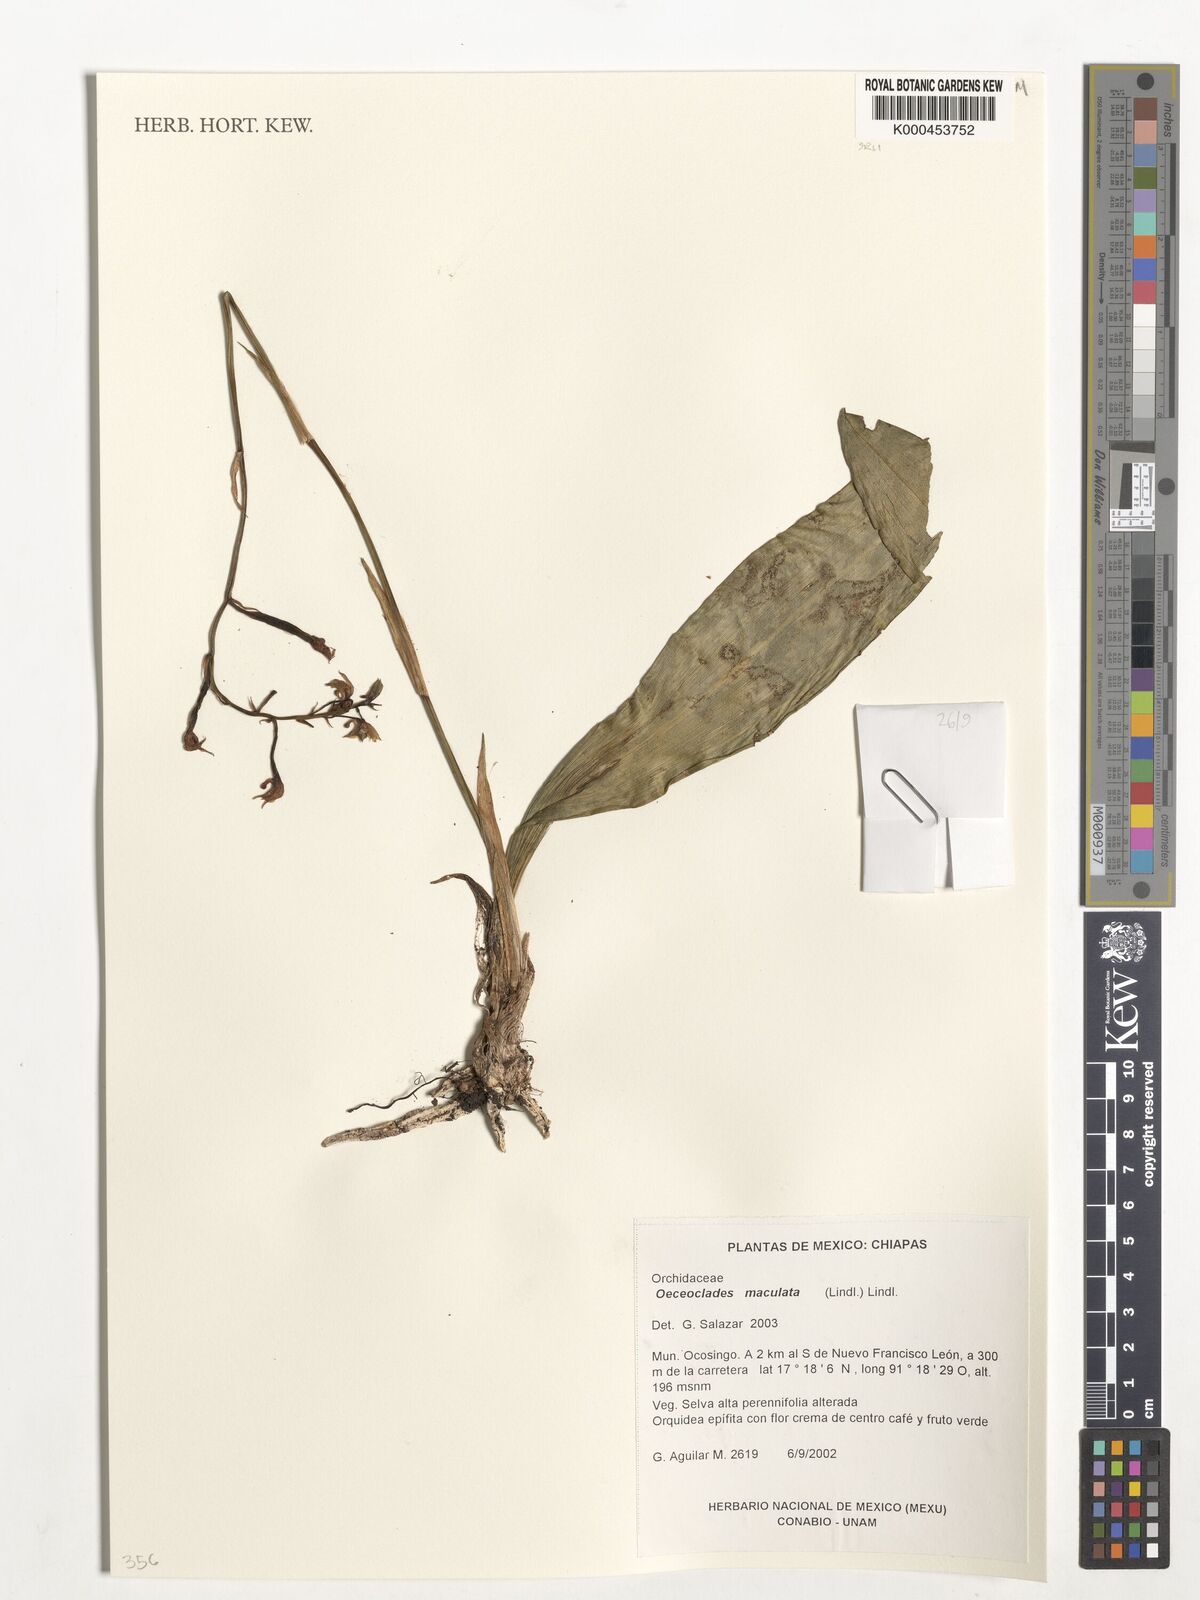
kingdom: Plantae
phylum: Tracheophyta
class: Liliopsida
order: Asparagales
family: Orchidaceae
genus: Eulophia
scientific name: Eulophia maculata
